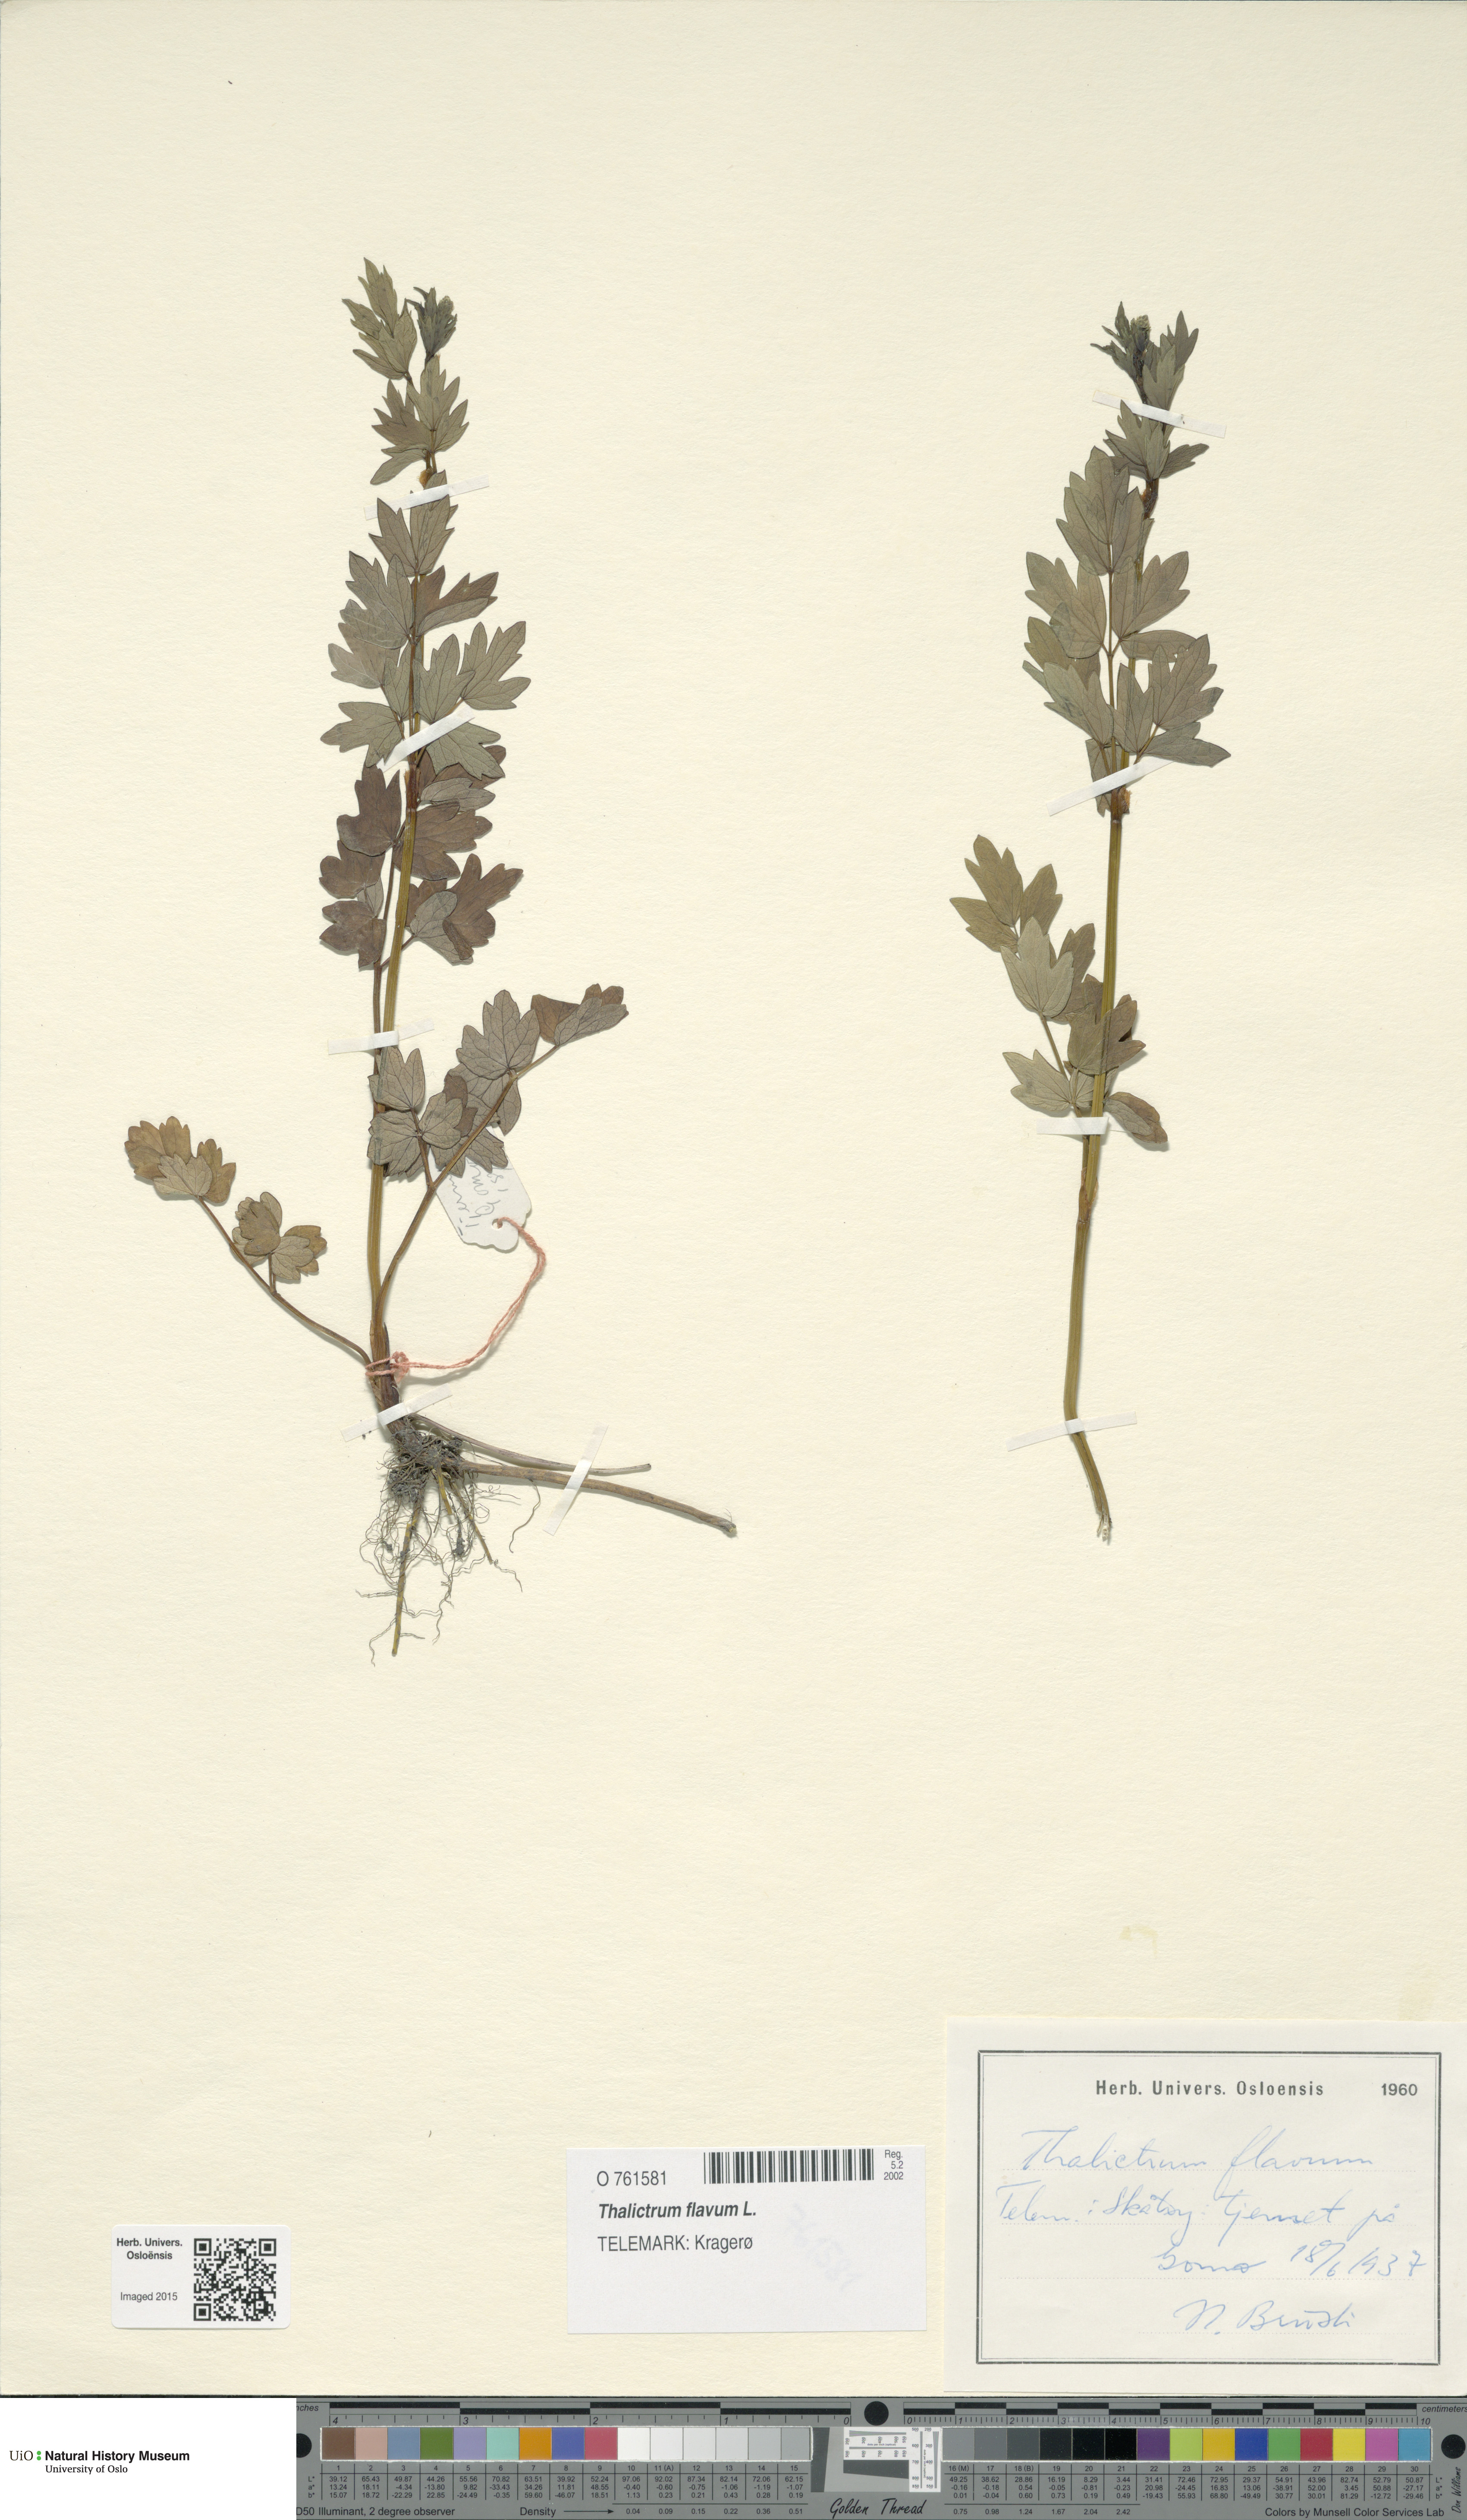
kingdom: Plantae
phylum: Tracheophyta
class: Magnoliopsida
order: Ranunculales
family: Ranunculaceae
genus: Thalictrum
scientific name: Thalictrum flavum
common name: Common meadow-rue
